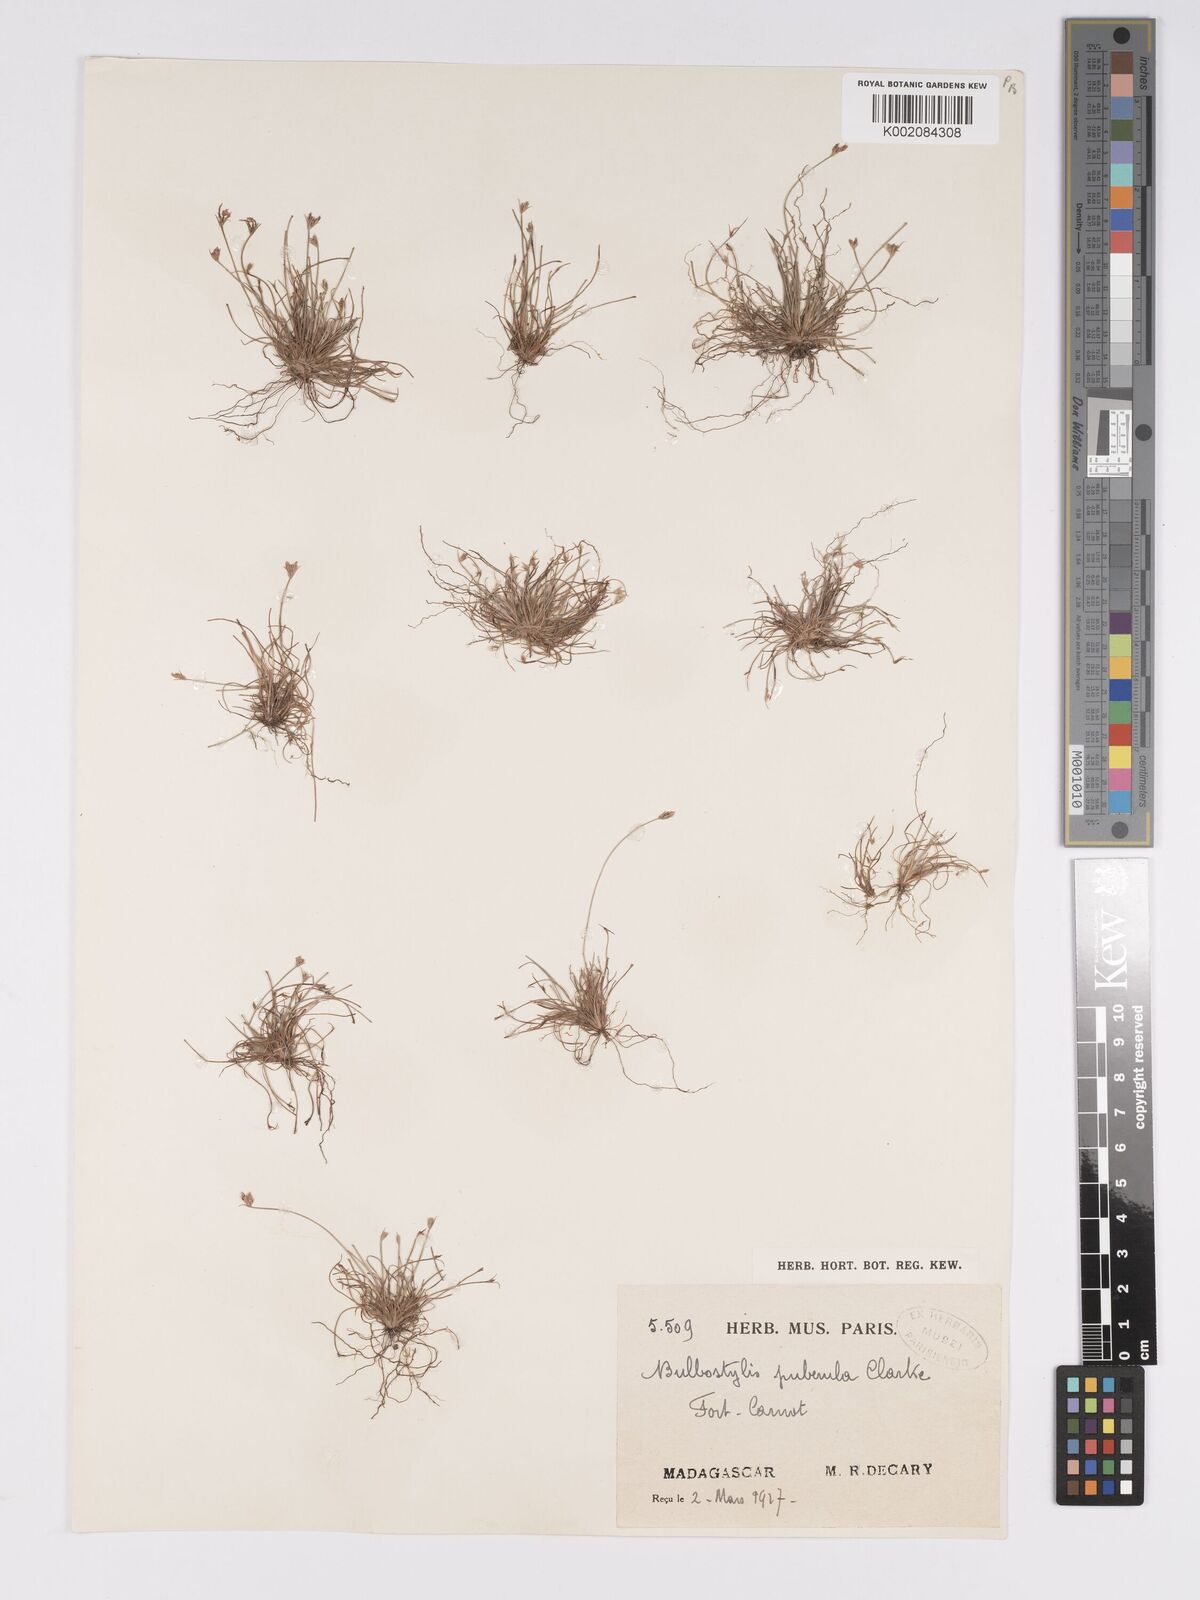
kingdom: Plantae
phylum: Tracheophyta
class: Liliopsida
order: Poales
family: Cyperaceae
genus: Bulbostylis
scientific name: Bulbostylis thouarsii
